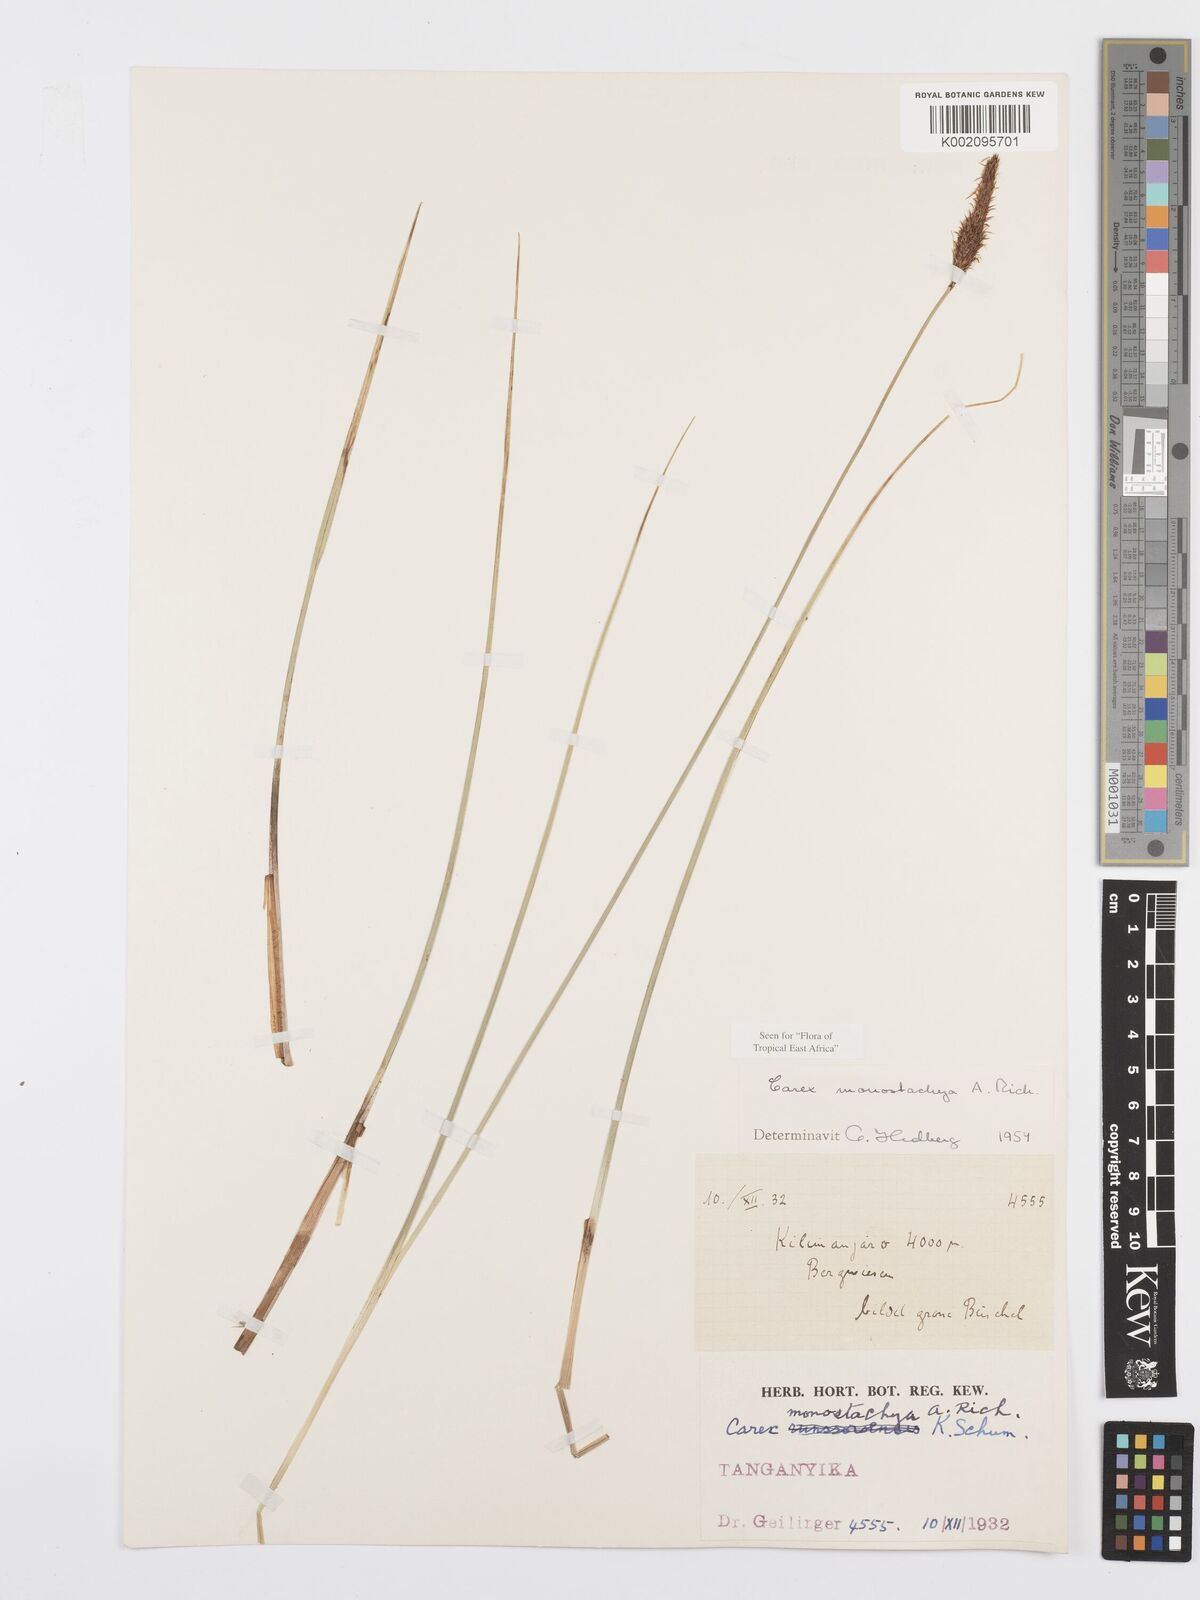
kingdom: Plantae
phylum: Tracheophyta
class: Liliopsida
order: Poales
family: Cyperaceae
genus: Carex
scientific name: Carex monostachya
